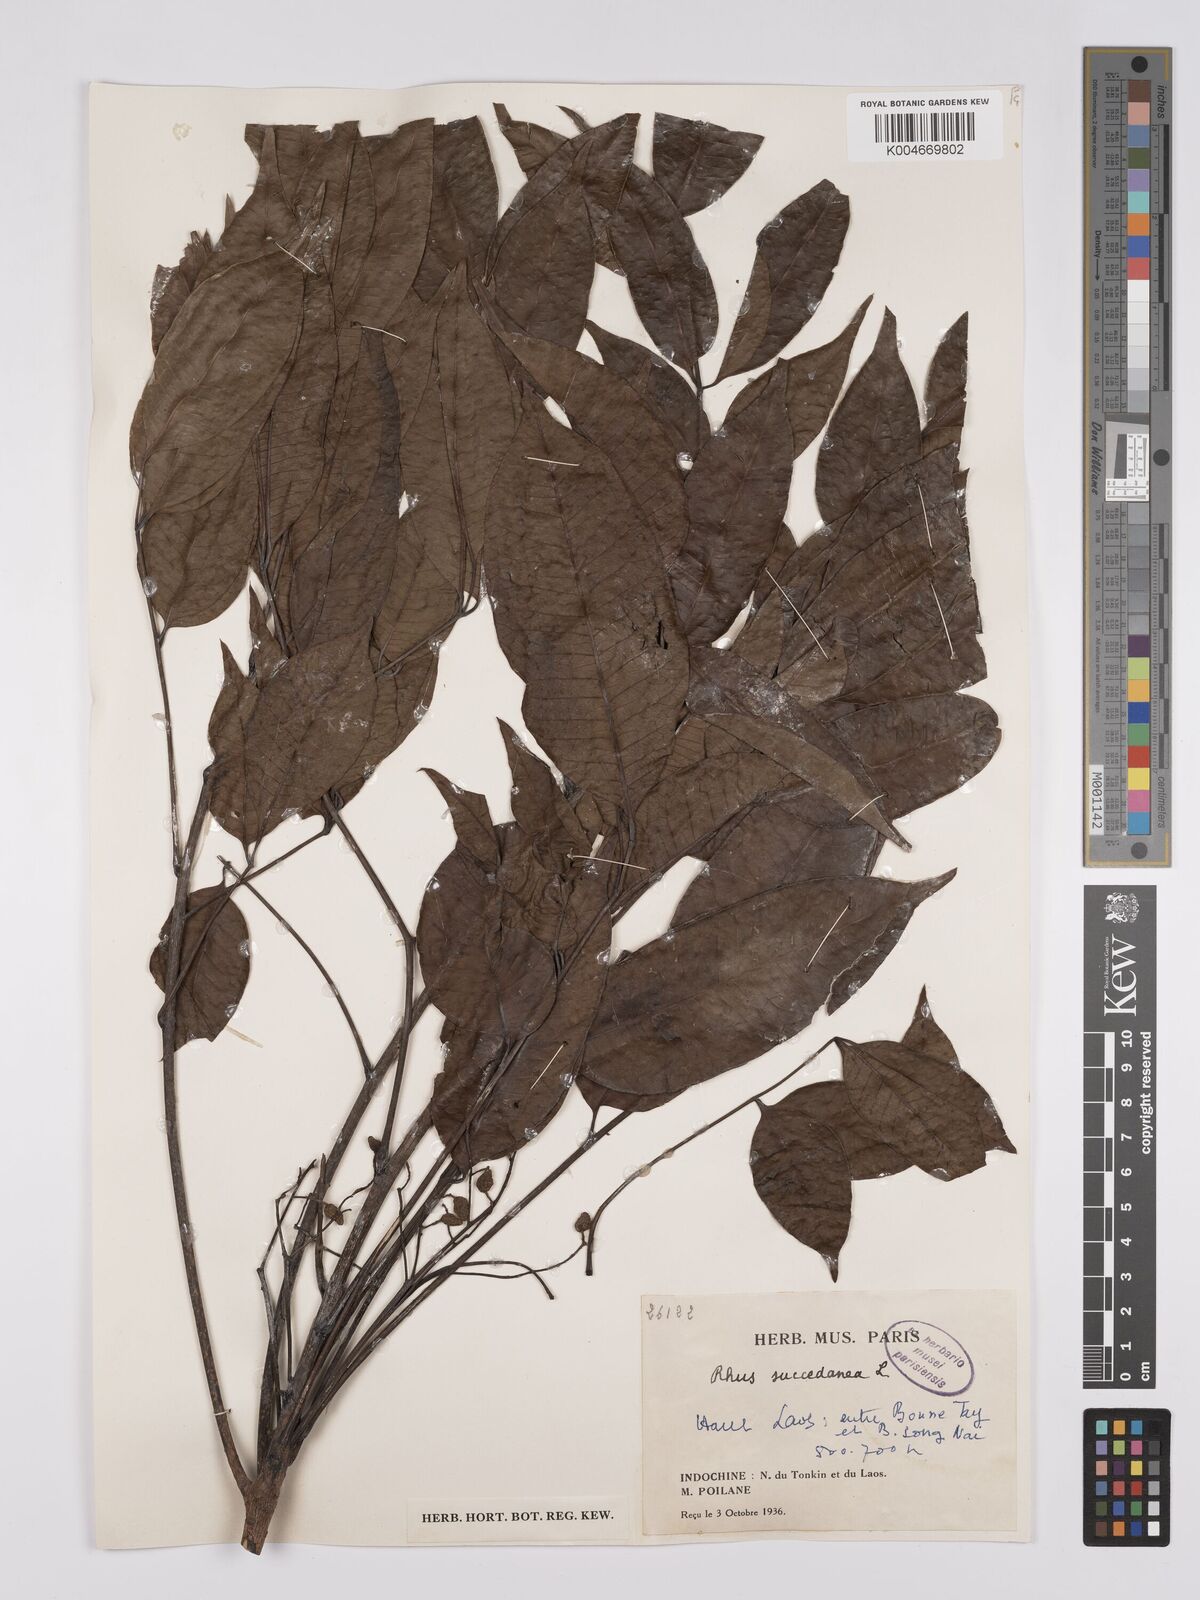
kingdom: Plantae
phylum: Tracheophyta
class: Magnoliopsida
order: Sapindales
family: Anacardiaceae
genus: Toxicodendron
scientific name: Toxicodendron succedaneum
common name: Wax tree
